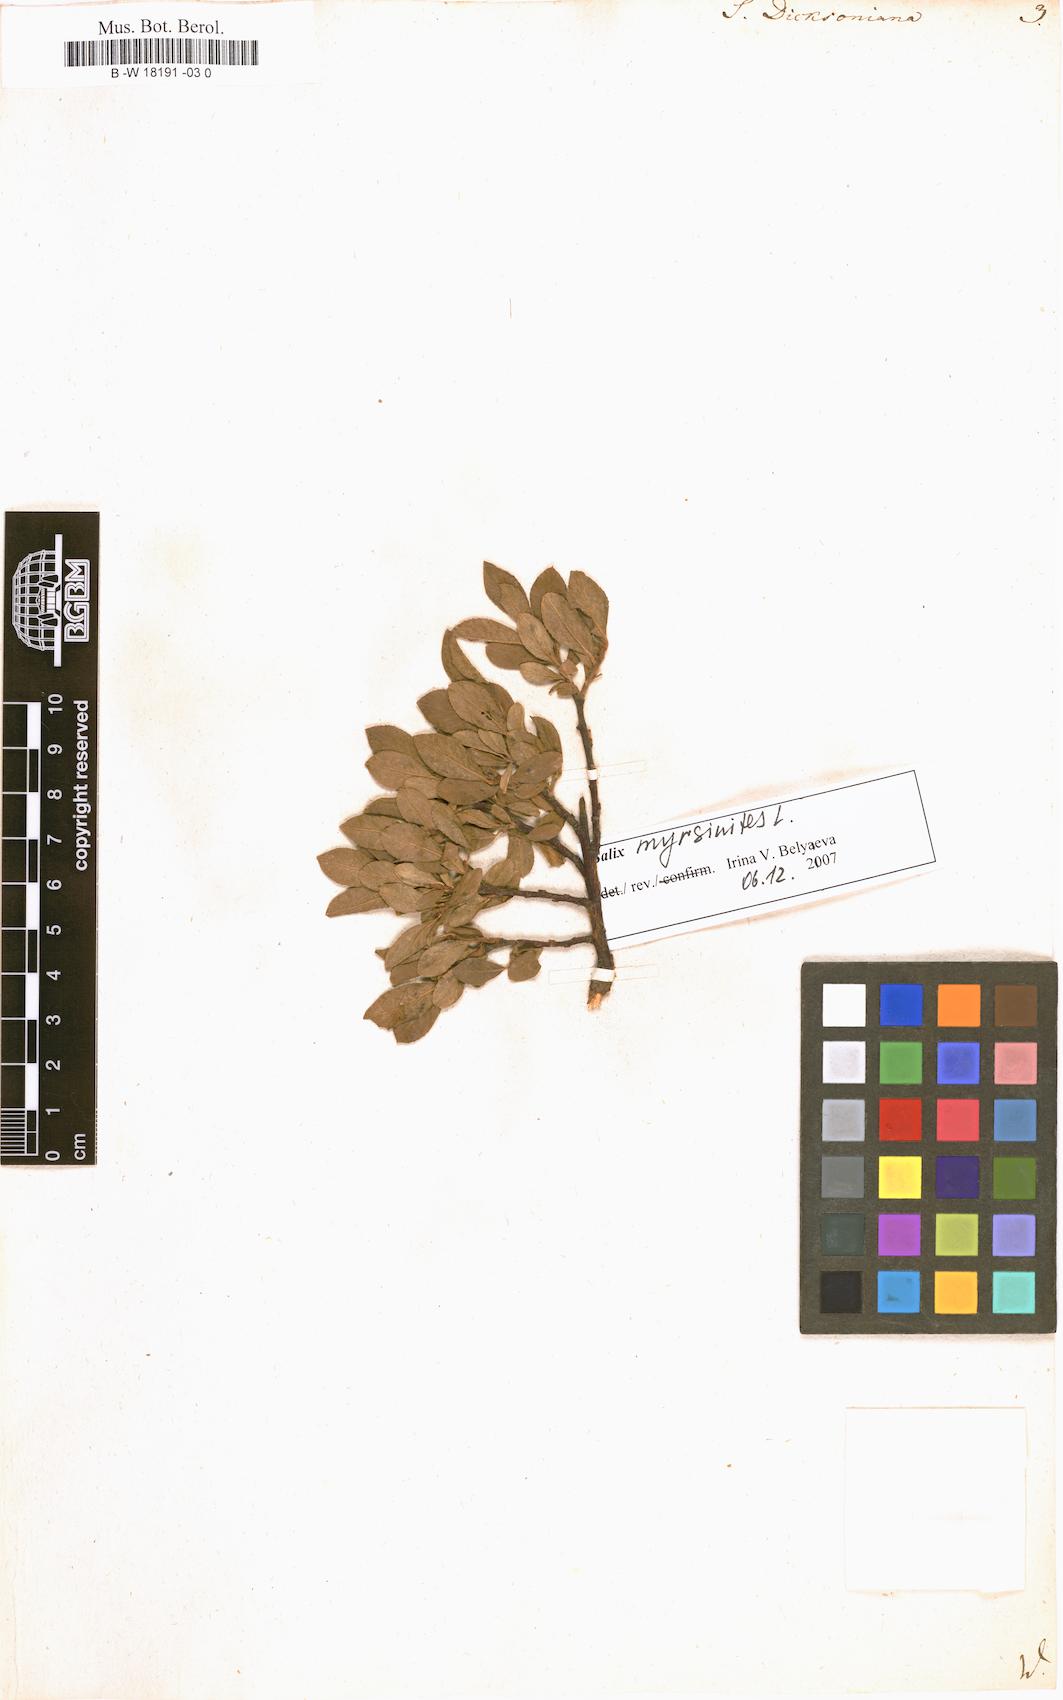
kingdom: Plantae
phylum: Tracheophyta
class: Magnoliopsida
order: Malpighiales
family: Salicaceae
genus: Salix
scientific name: Salix phylicifolia
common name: Tea-leaved willow
